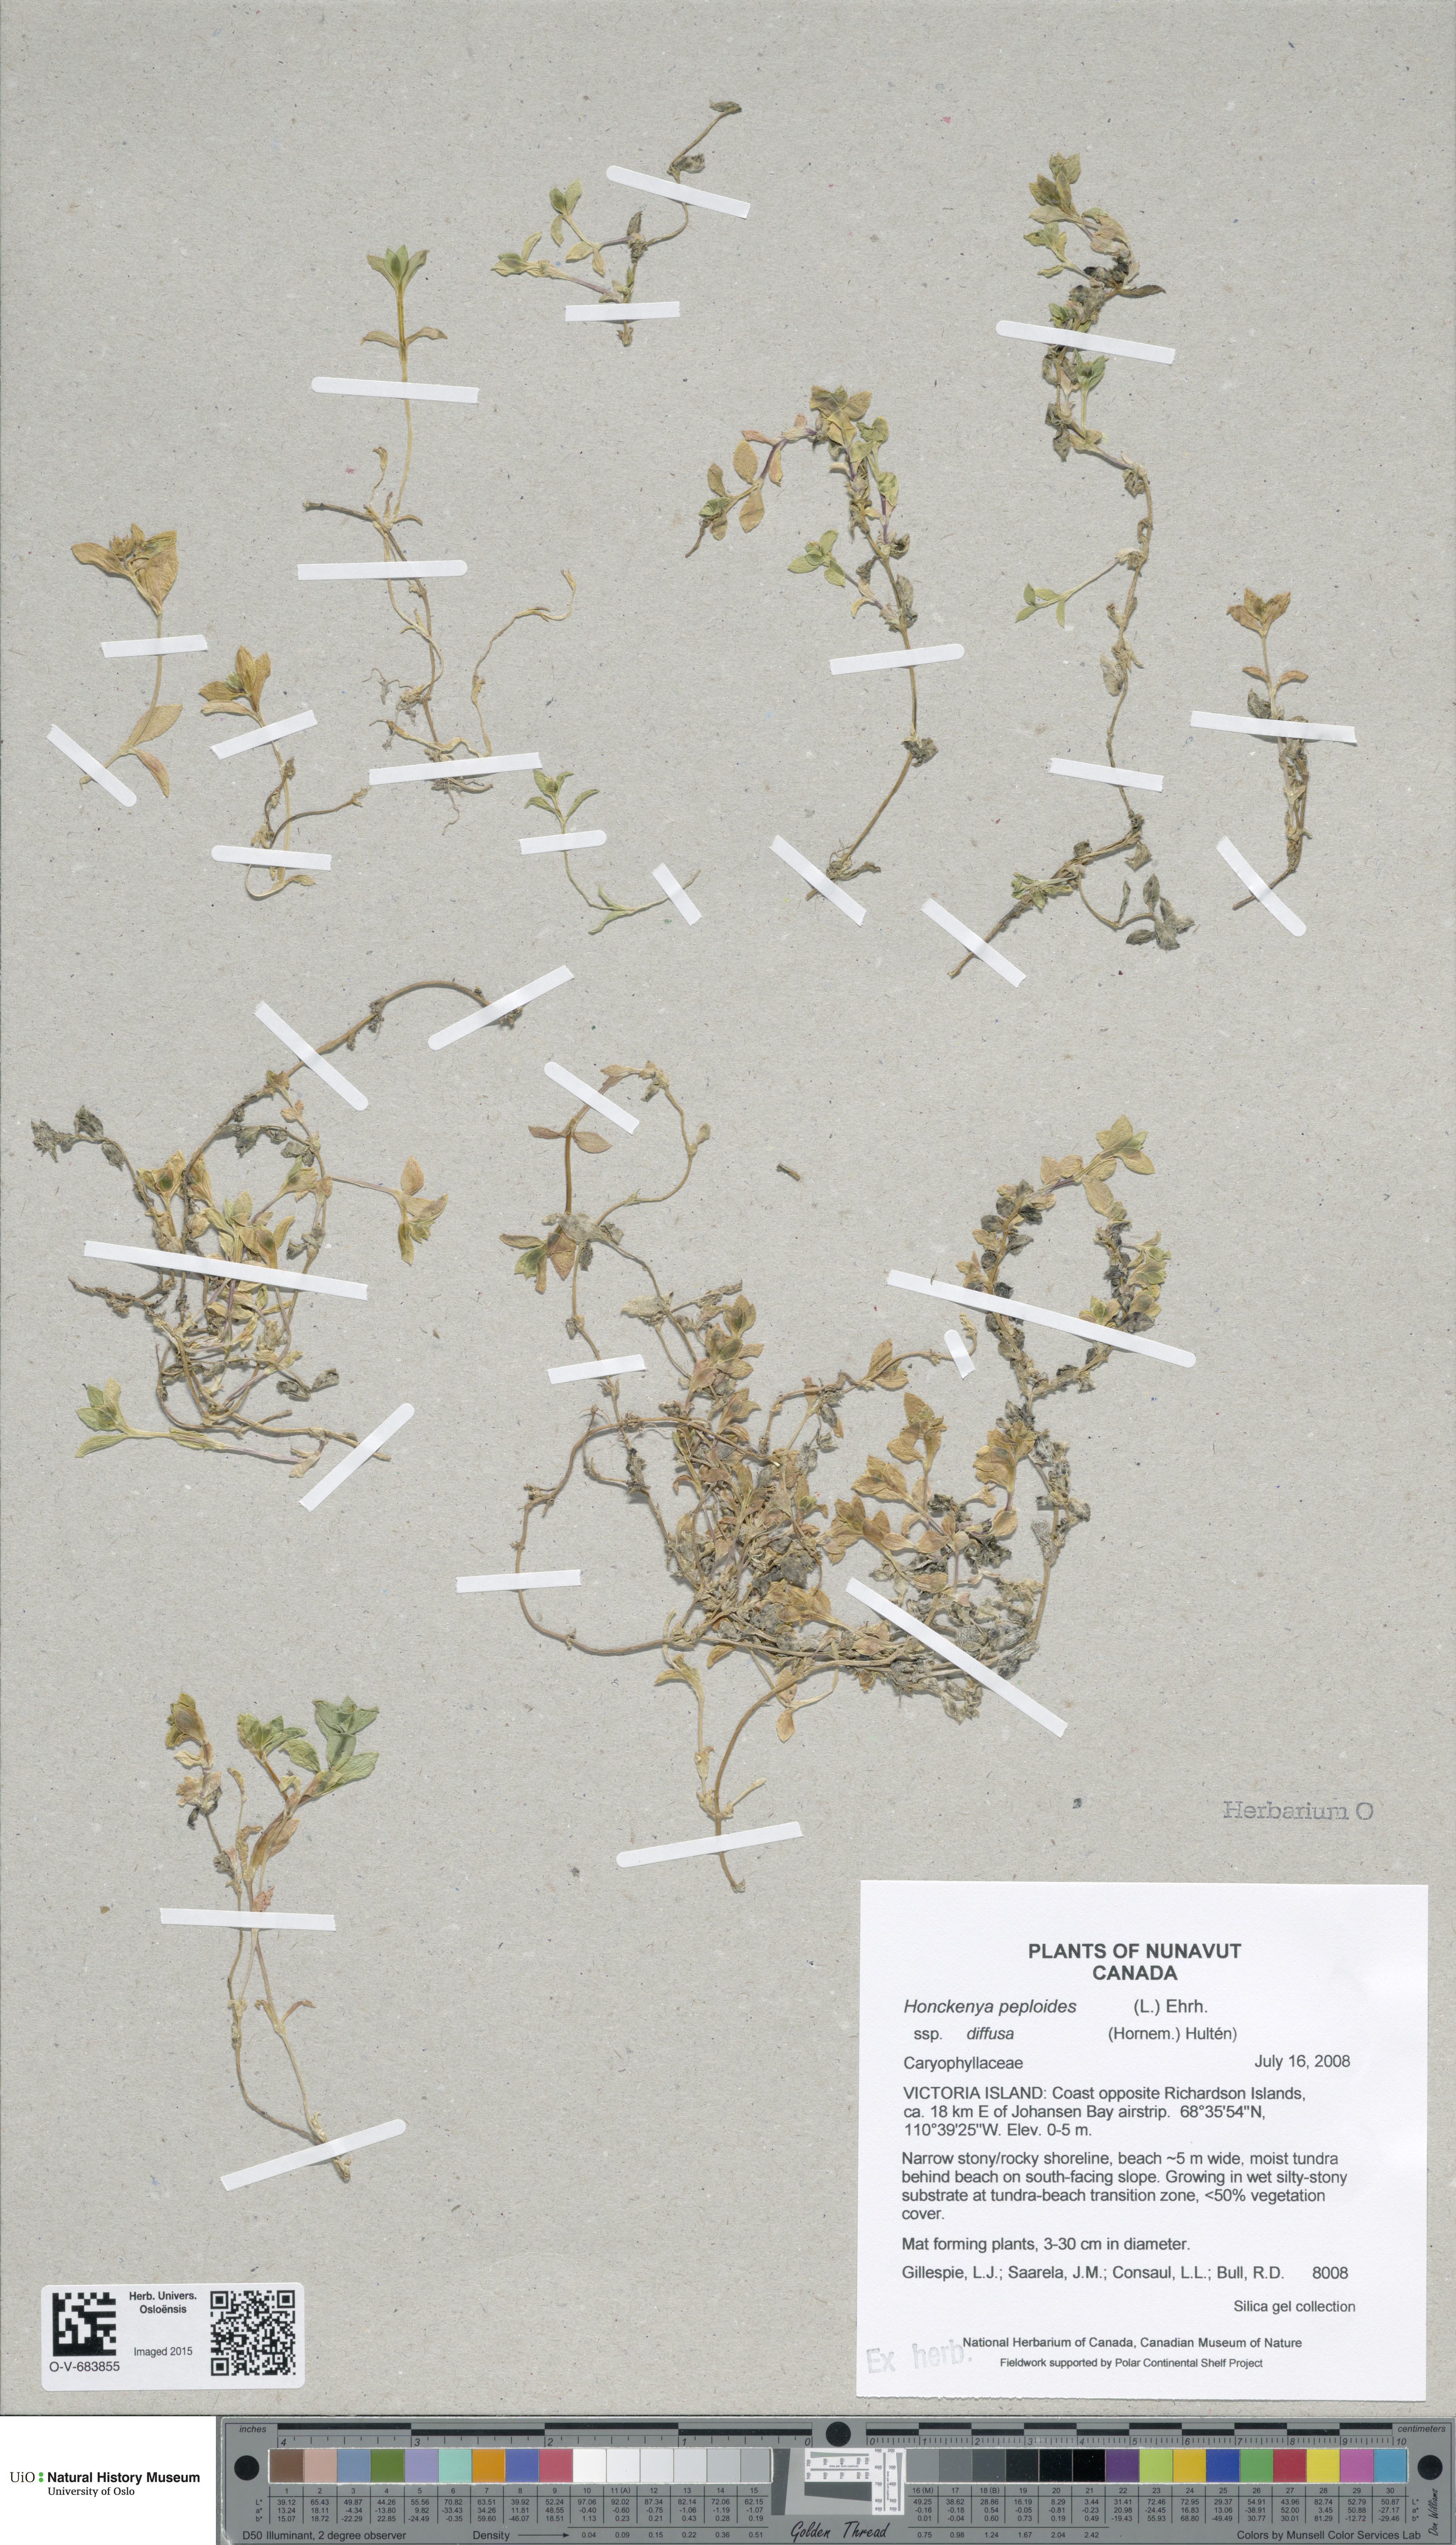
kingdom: Plantae
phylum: Tracheophyta
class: Magnoliopsida
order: Caryophyllales
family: Caryophyllaceae
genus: Honckenya
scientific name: Honckenya peploides
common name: Sea sandwort
